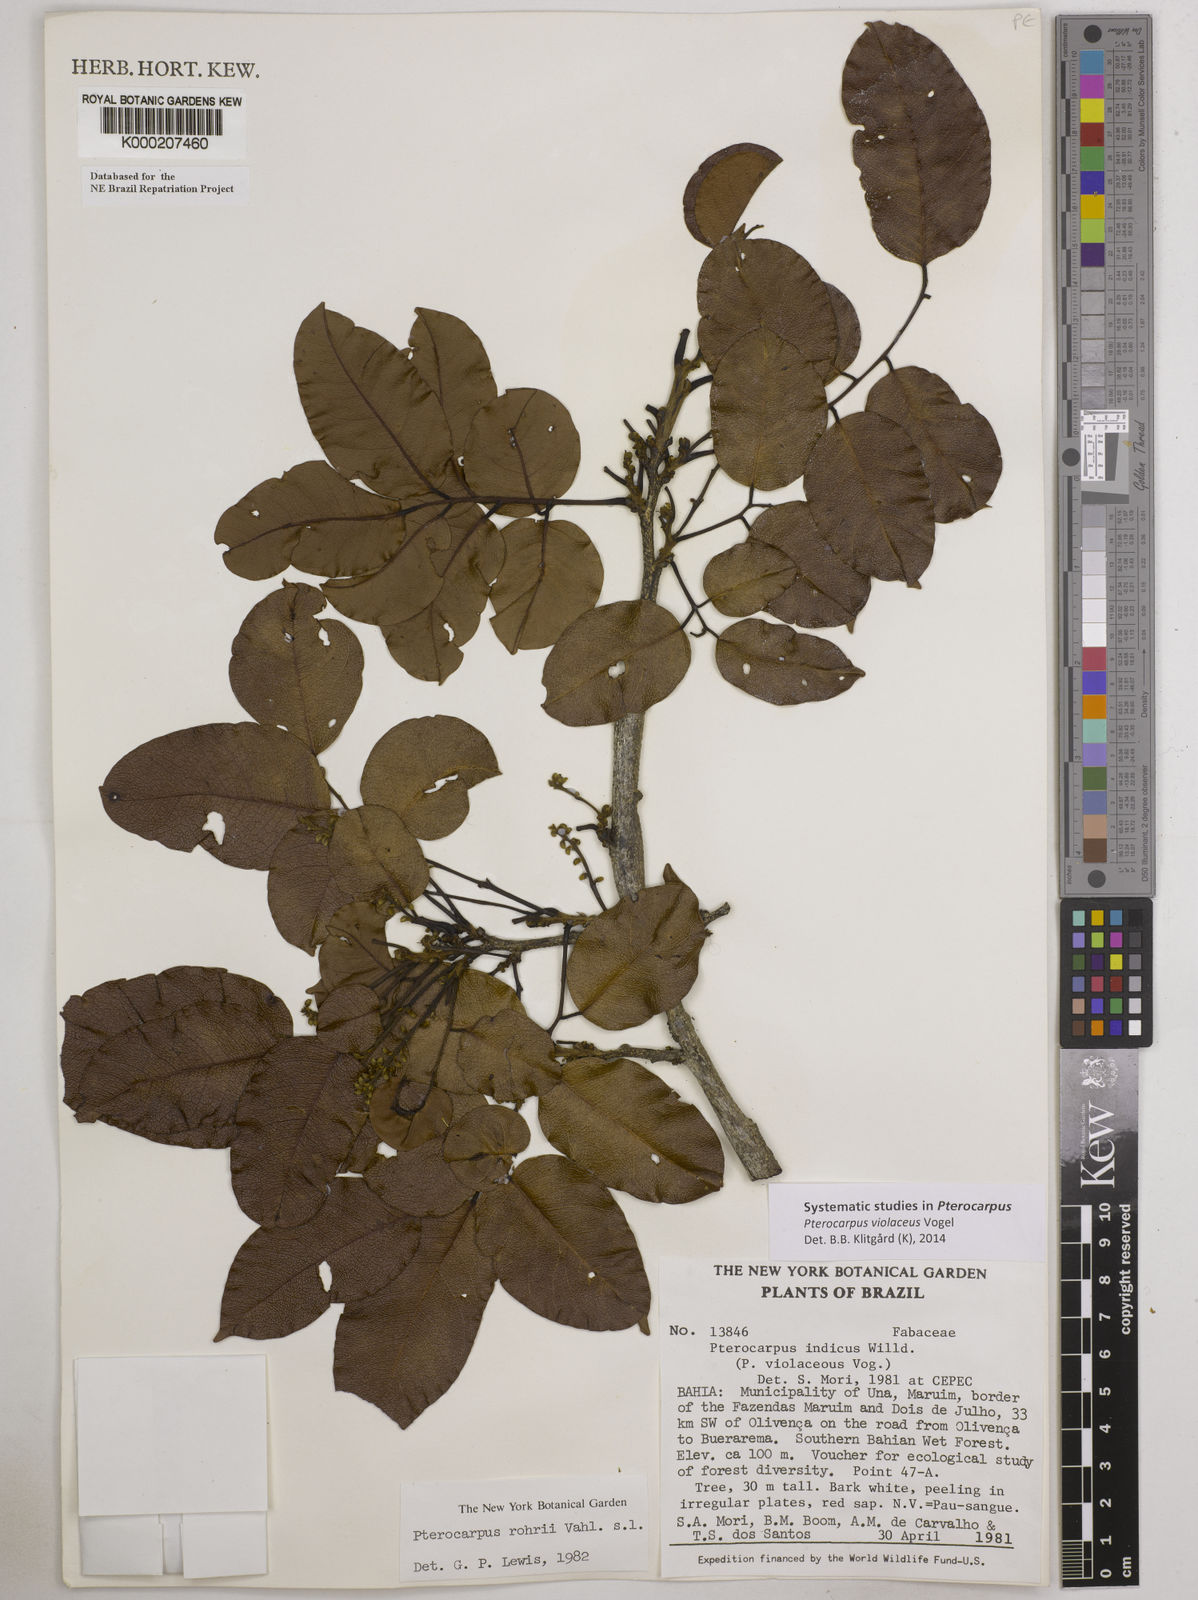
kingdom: Plantae
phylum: Tracheophyta
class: Magnoliopsida
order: Fabales
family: Fabaceae
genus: Pterocarpus
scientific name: Pterocarpus rohrii
